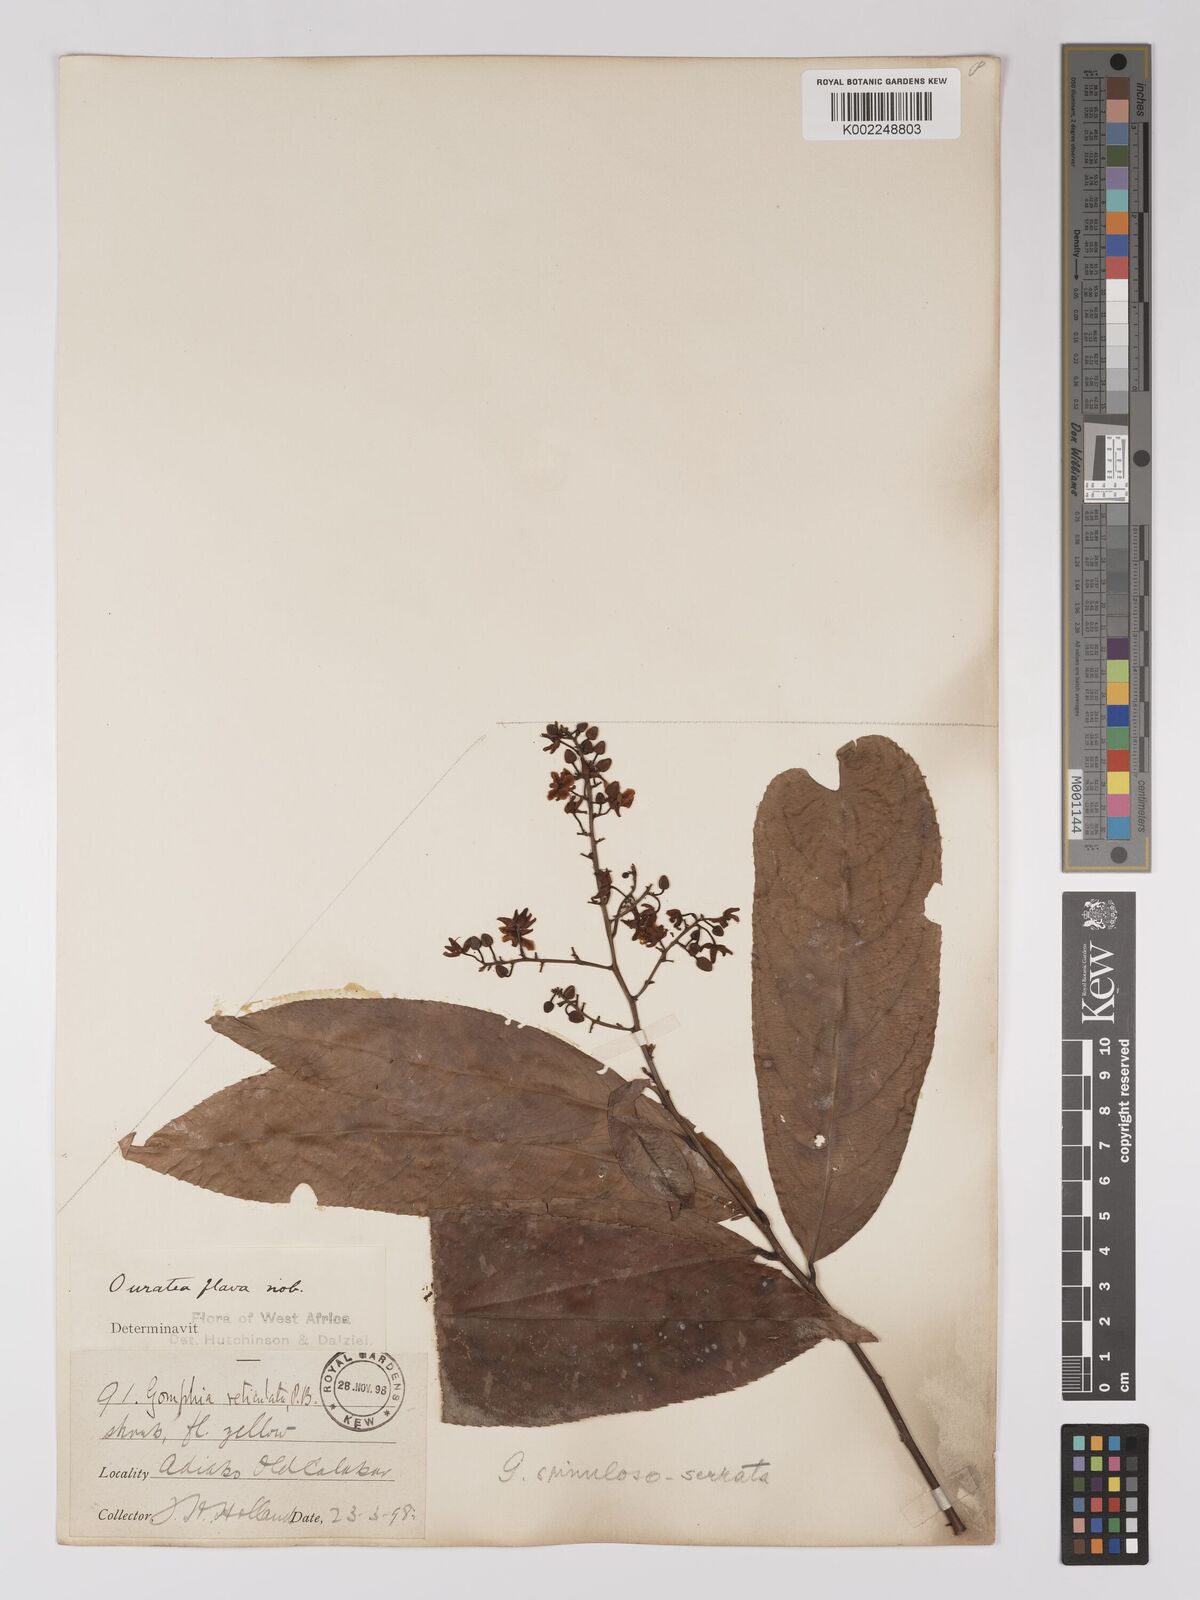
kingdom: Plantae
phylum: Tracheophyta
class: Magnoliopsida
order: Malpighiales
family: Ochnaceae
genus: Campylospermum
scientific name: Campylospermum flavum
